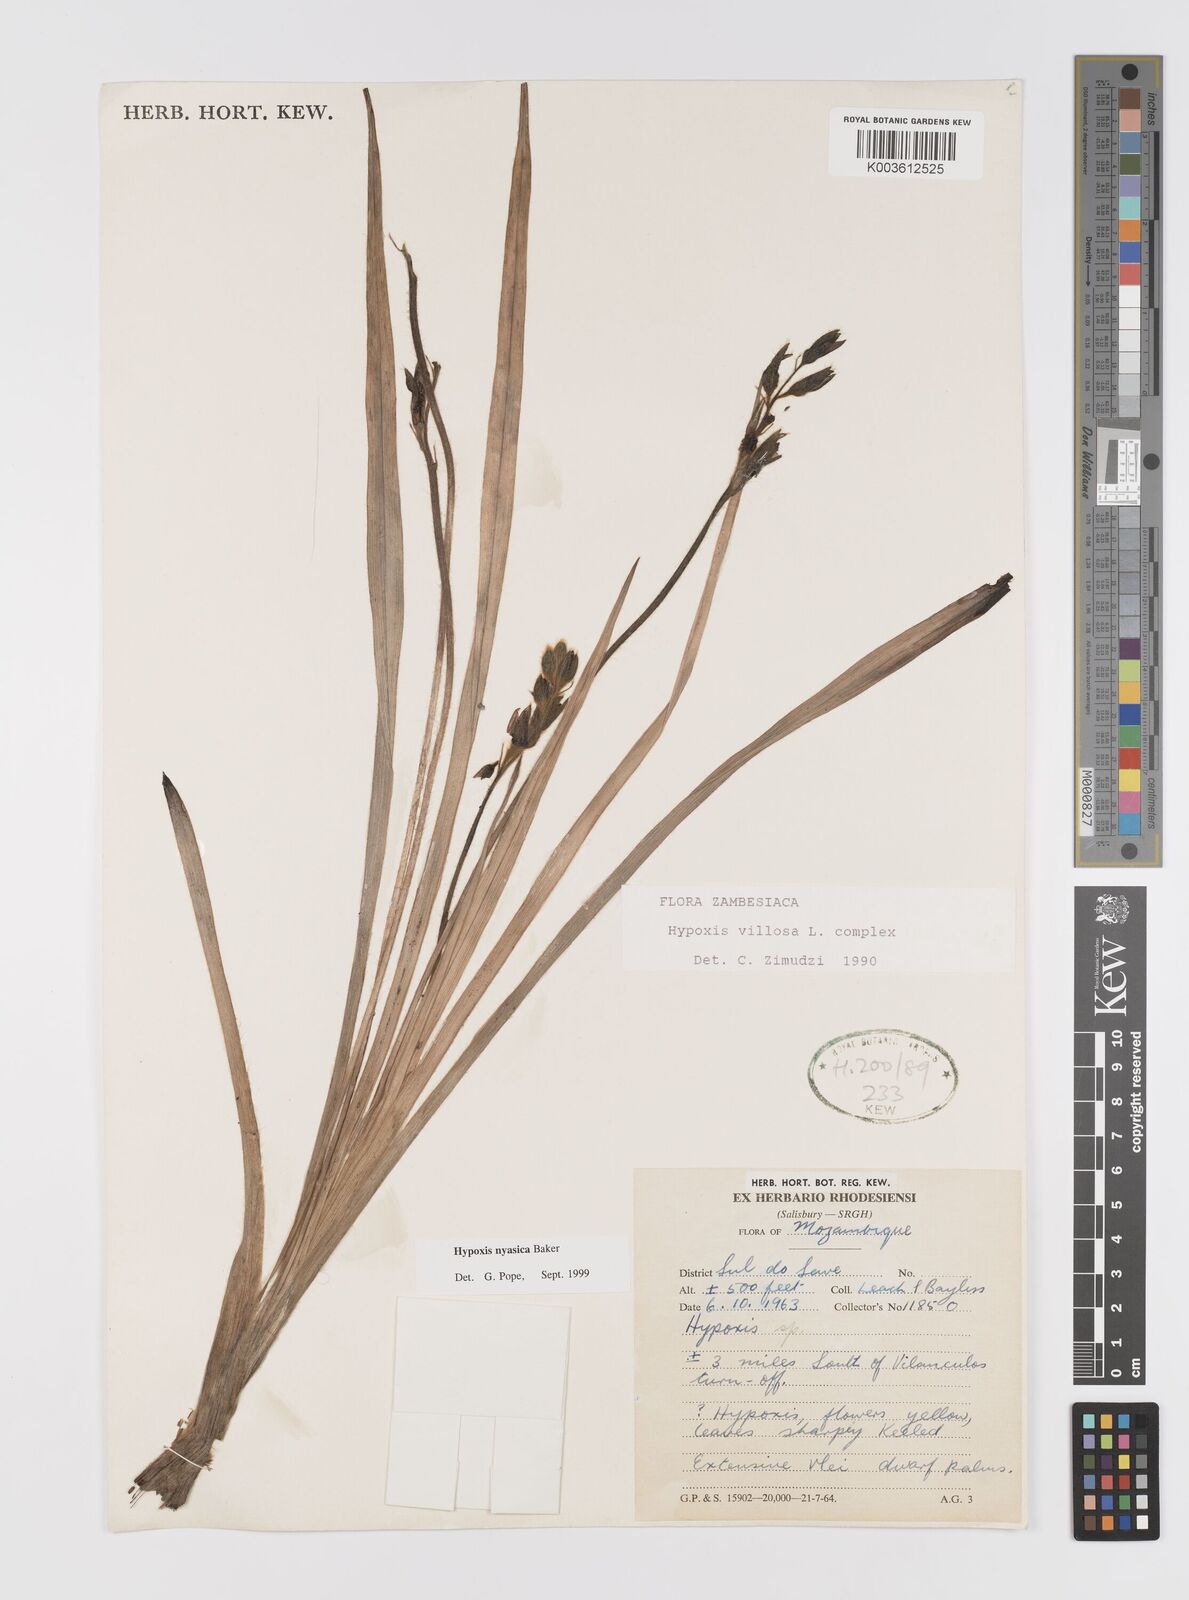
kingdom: Plantae
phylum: Tracheophyta
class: Liliopsida
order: Asparagales
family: Hypoxidaceae
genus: Hypoxis
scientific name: Hypoxis nyasica
